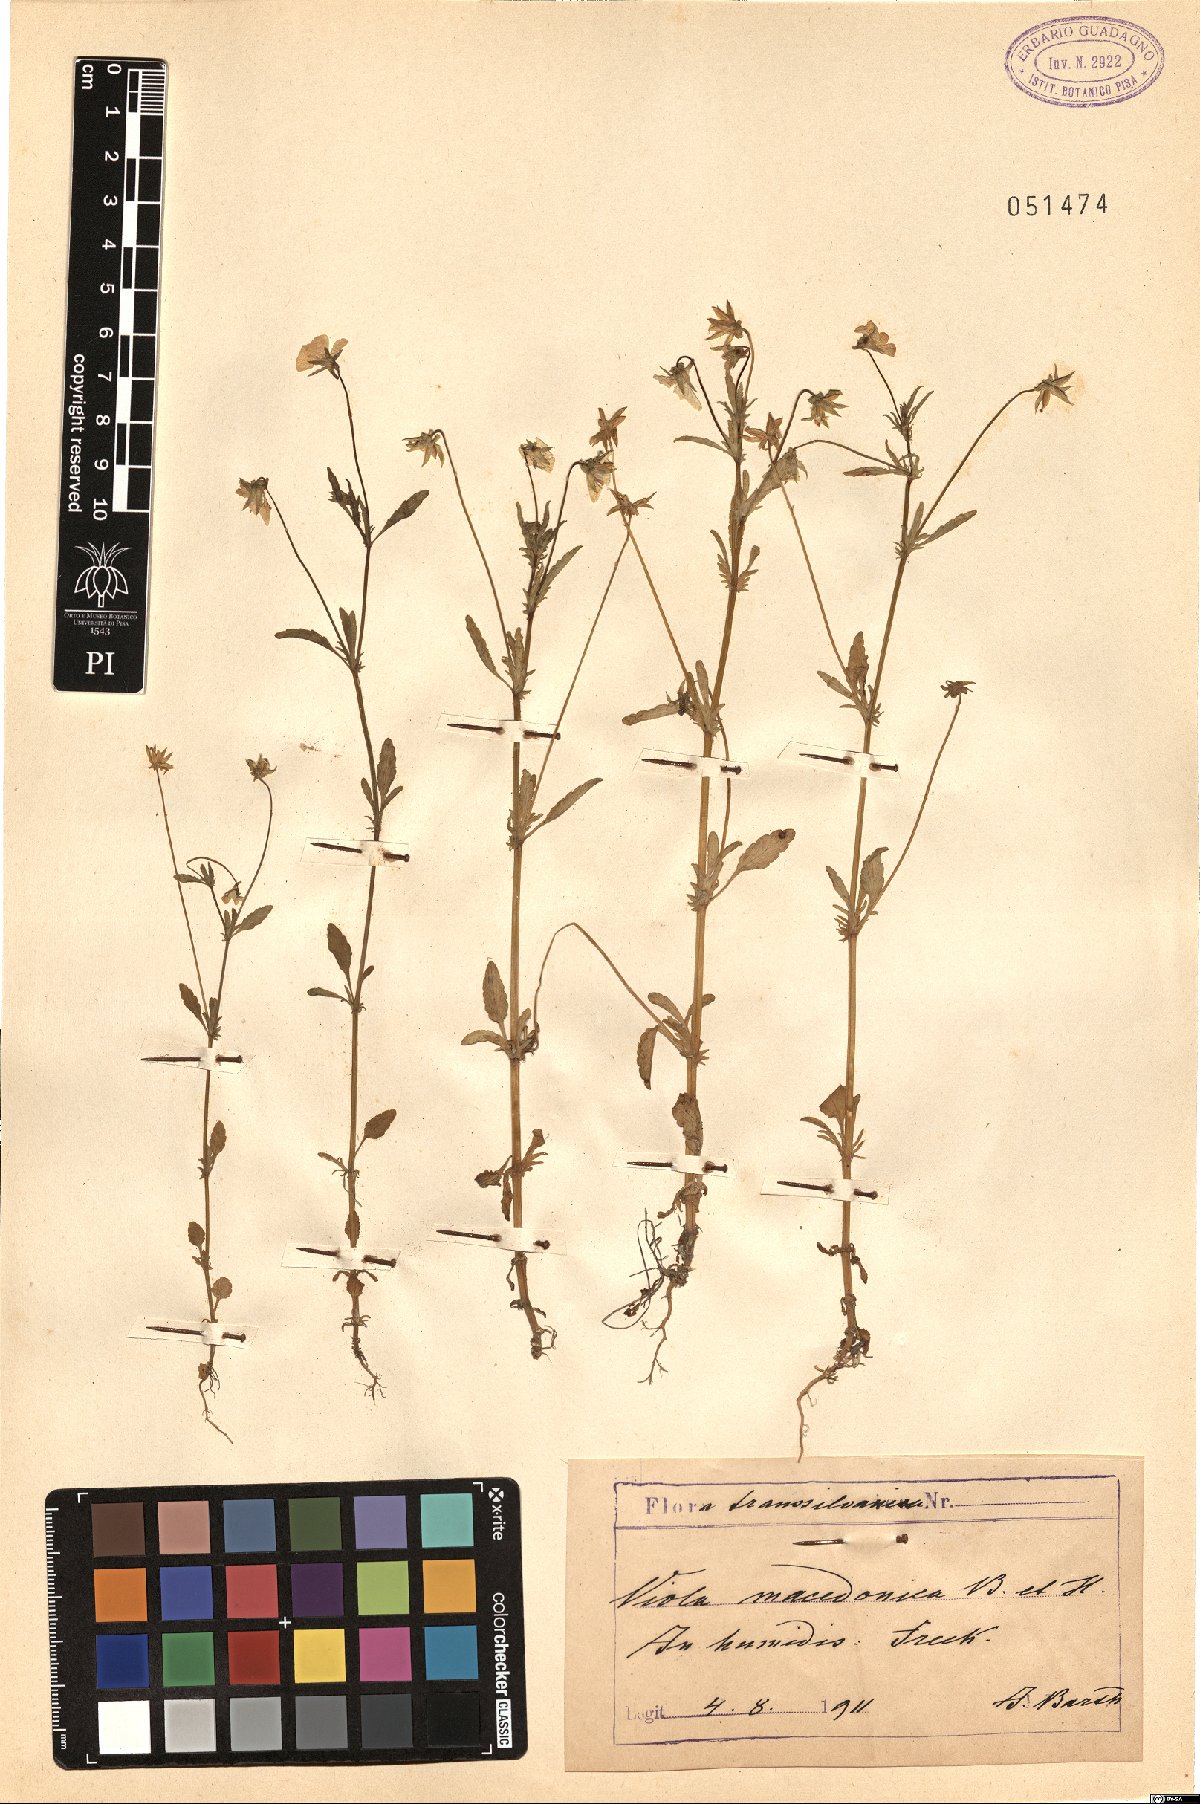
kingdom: Plantae
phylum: Tracheophyta
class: Magnoliopsida
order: Malpighiales
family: Violaceae
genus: Viola
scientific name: Viola tricolor
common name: Pansy
